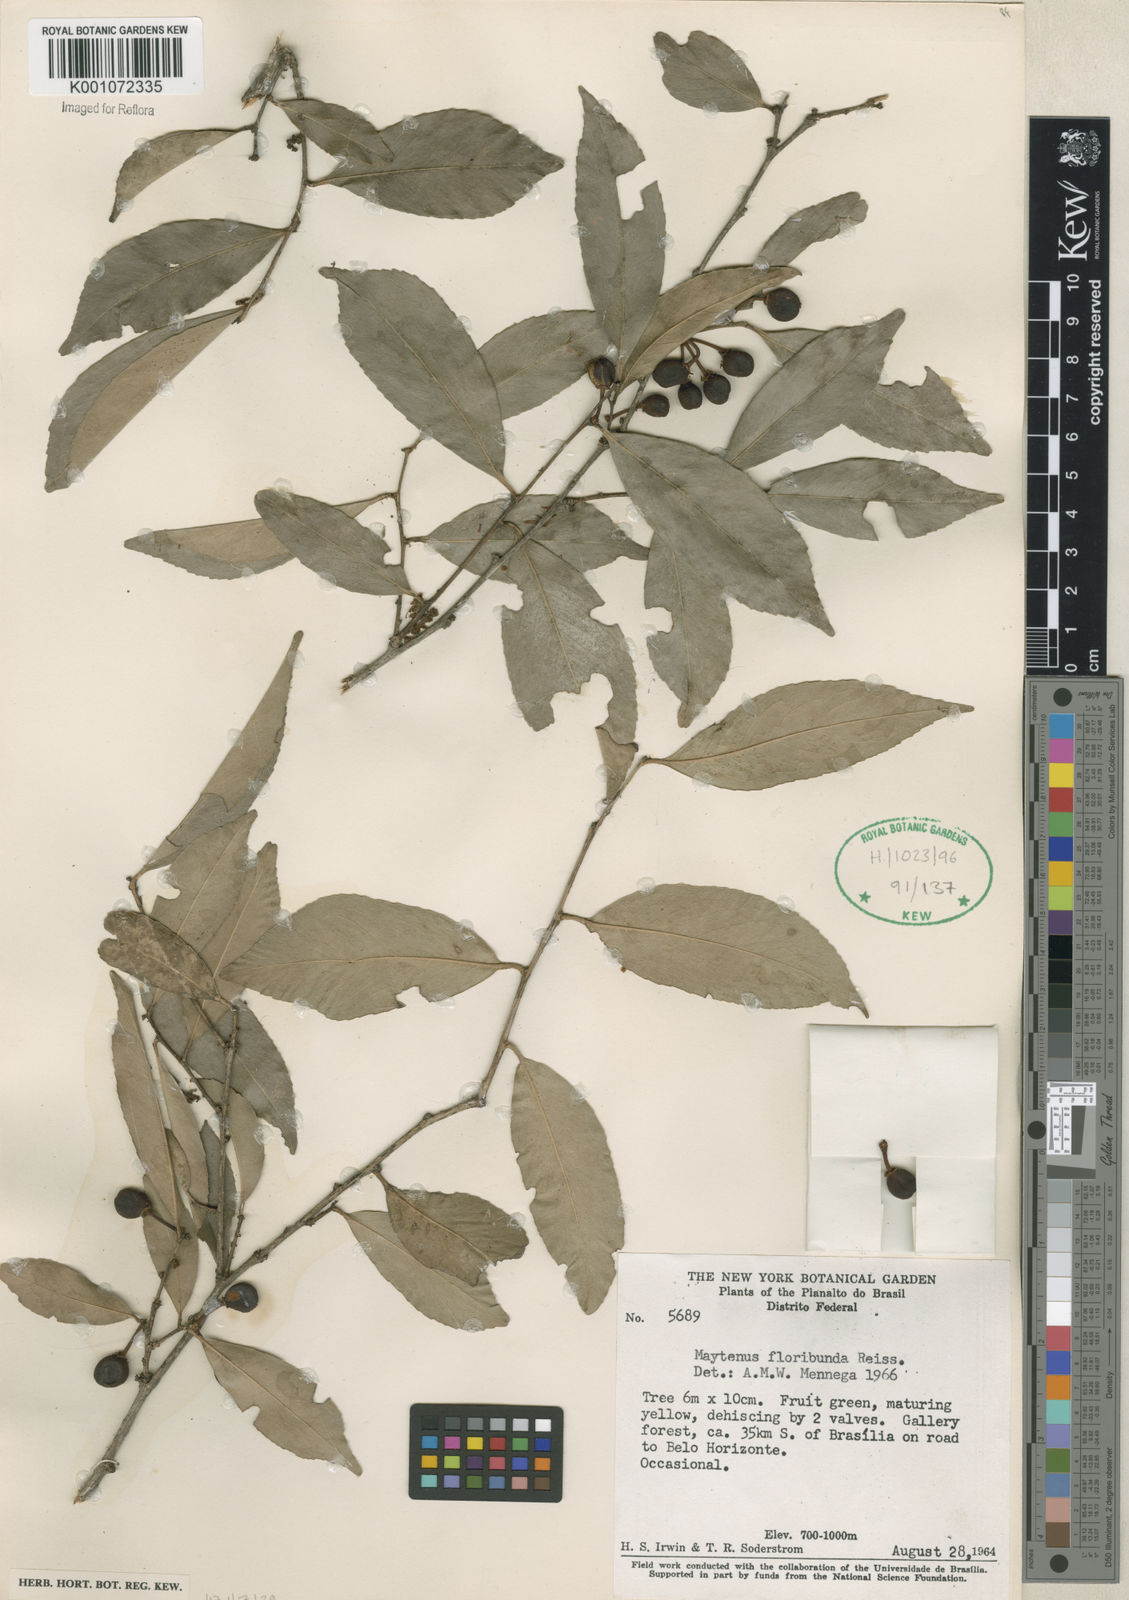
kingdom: Plantae
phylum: Tracheophyta
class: Magnoliopsida
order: Celastrales
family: Celastraceae
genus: Monteverdia
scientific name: Monteverdia floribunda
